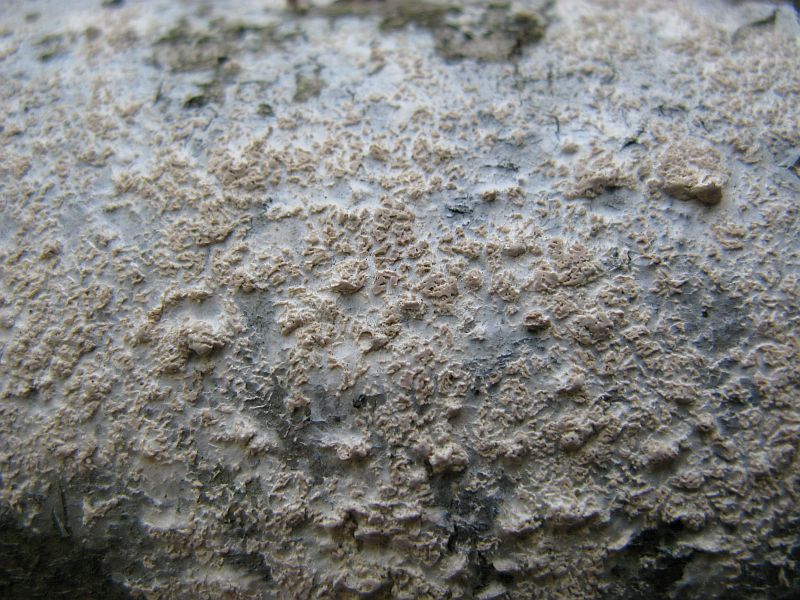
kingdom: Fungi
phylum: Basidiomycota
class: Agaricomycetes
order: Agaricales
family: Physalacriaceae
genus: Cylindrobasidium
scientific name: Cylindrobasidium evolvens
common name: sprækkehinde
